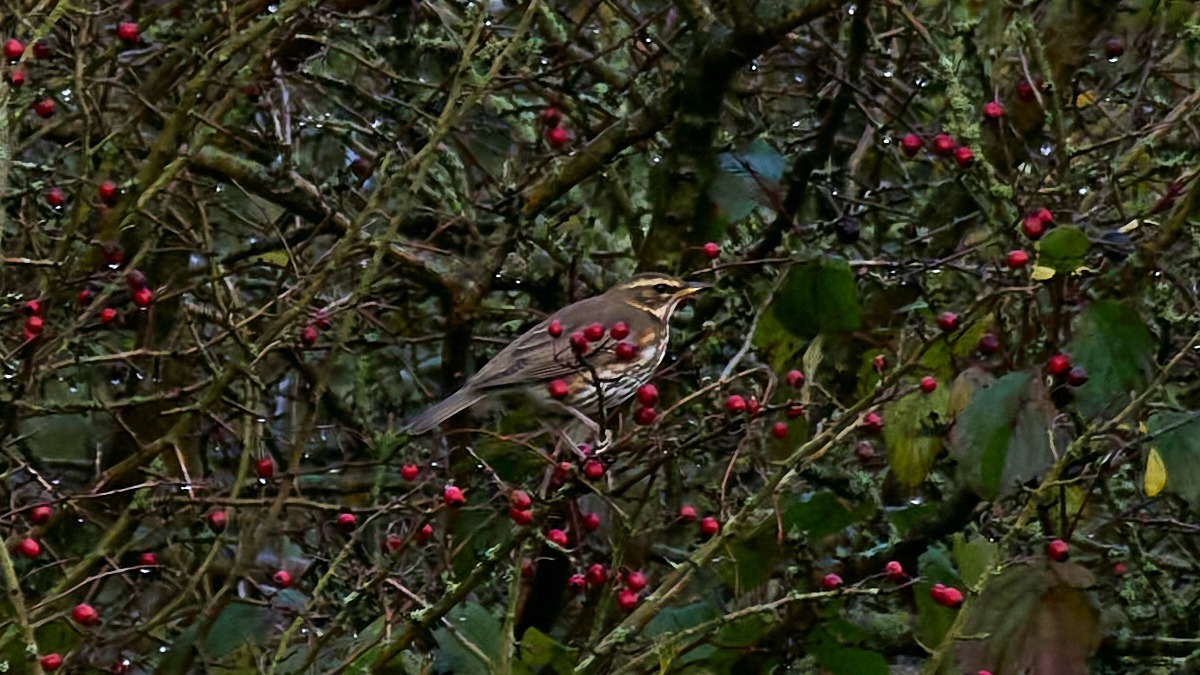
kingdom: Animalia
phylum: Chordata
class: Aves
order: Passeriformes
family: Turdidae
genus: Turdus
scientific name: Turdus iliacus
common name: Vindrossel
